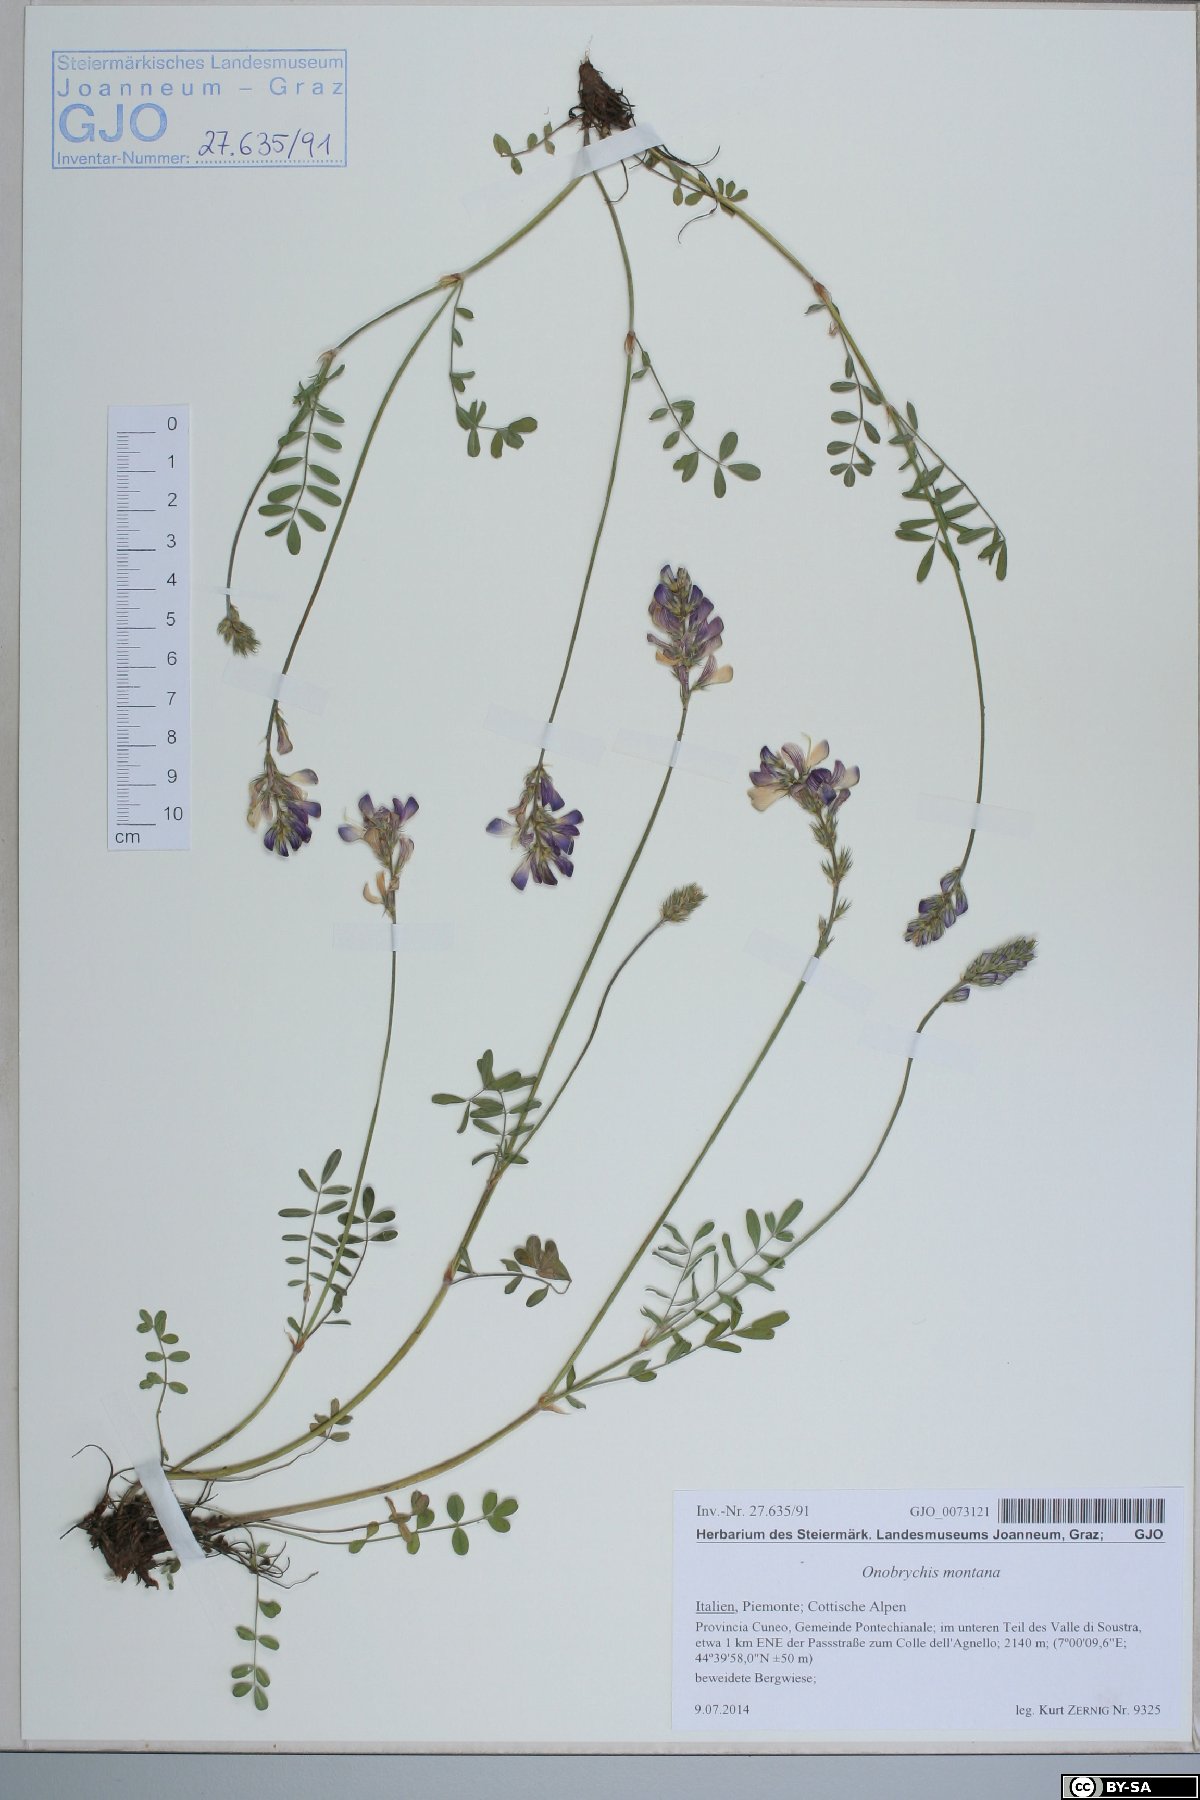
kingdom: Plantae
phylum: Tracheophyta
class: Magnoliopsida
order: Fabales
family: Fabaceae
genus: Onobrychis
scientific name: Onobrychis montana
